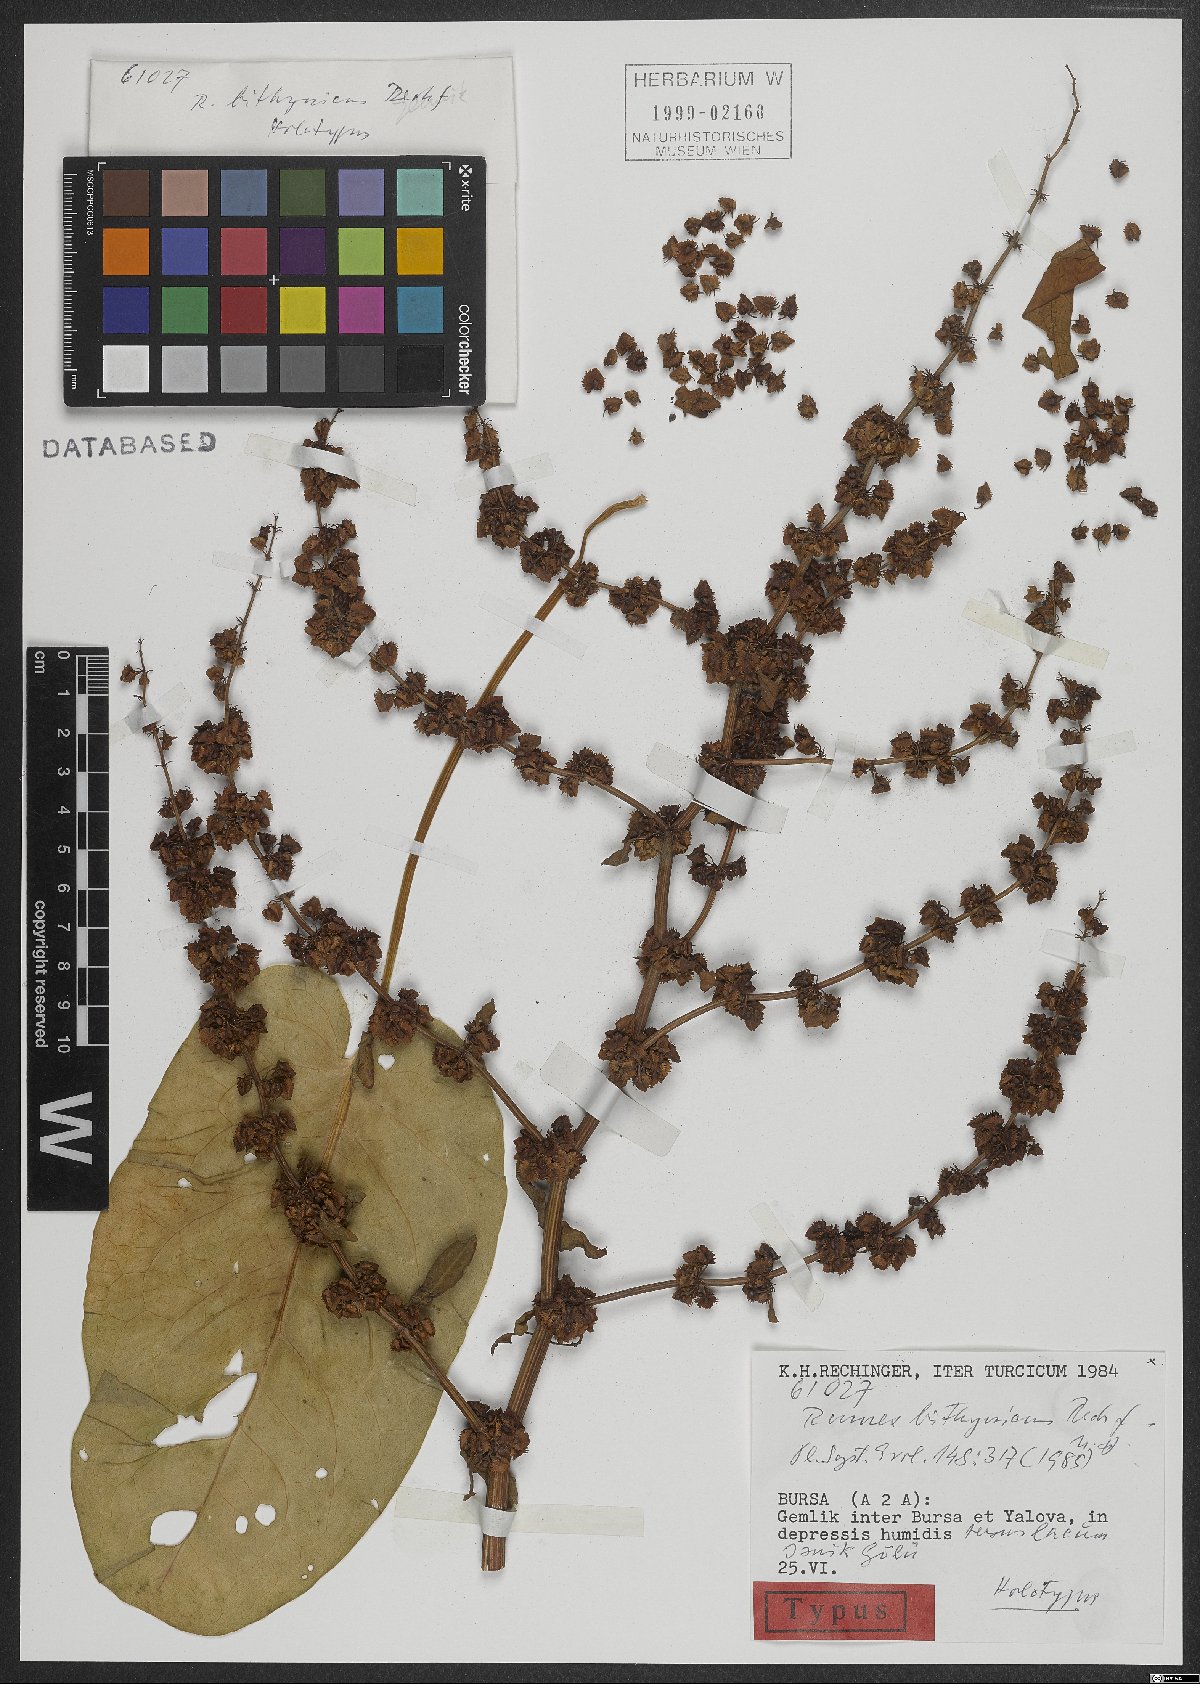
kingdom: Plantae
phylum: Tracheophyta
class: Magnoliopsida
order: Caryophyllales
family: Polygonaceae
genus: Rumex
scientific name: Rumex bithynicus
